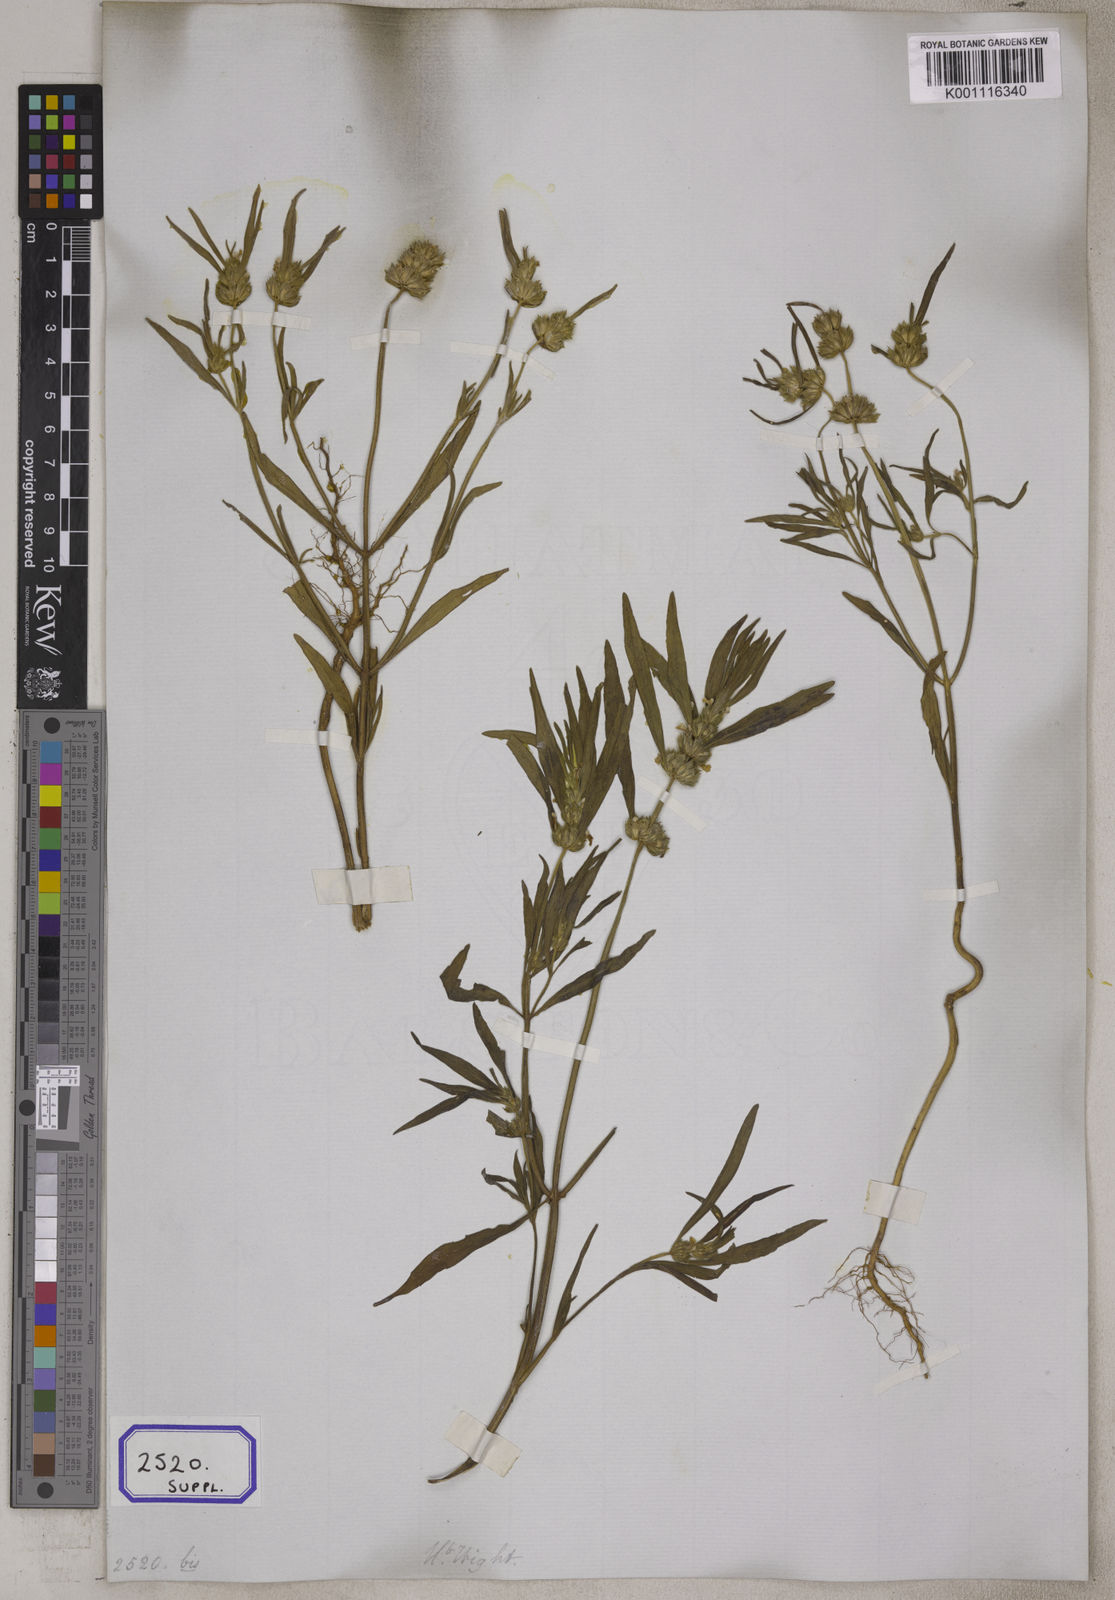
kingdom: Plantae
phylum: Tracheophyta
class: Magnoliopsida
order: Lamiales
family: Lamiaceae
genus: Leucas
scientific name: Leucas wightiana
